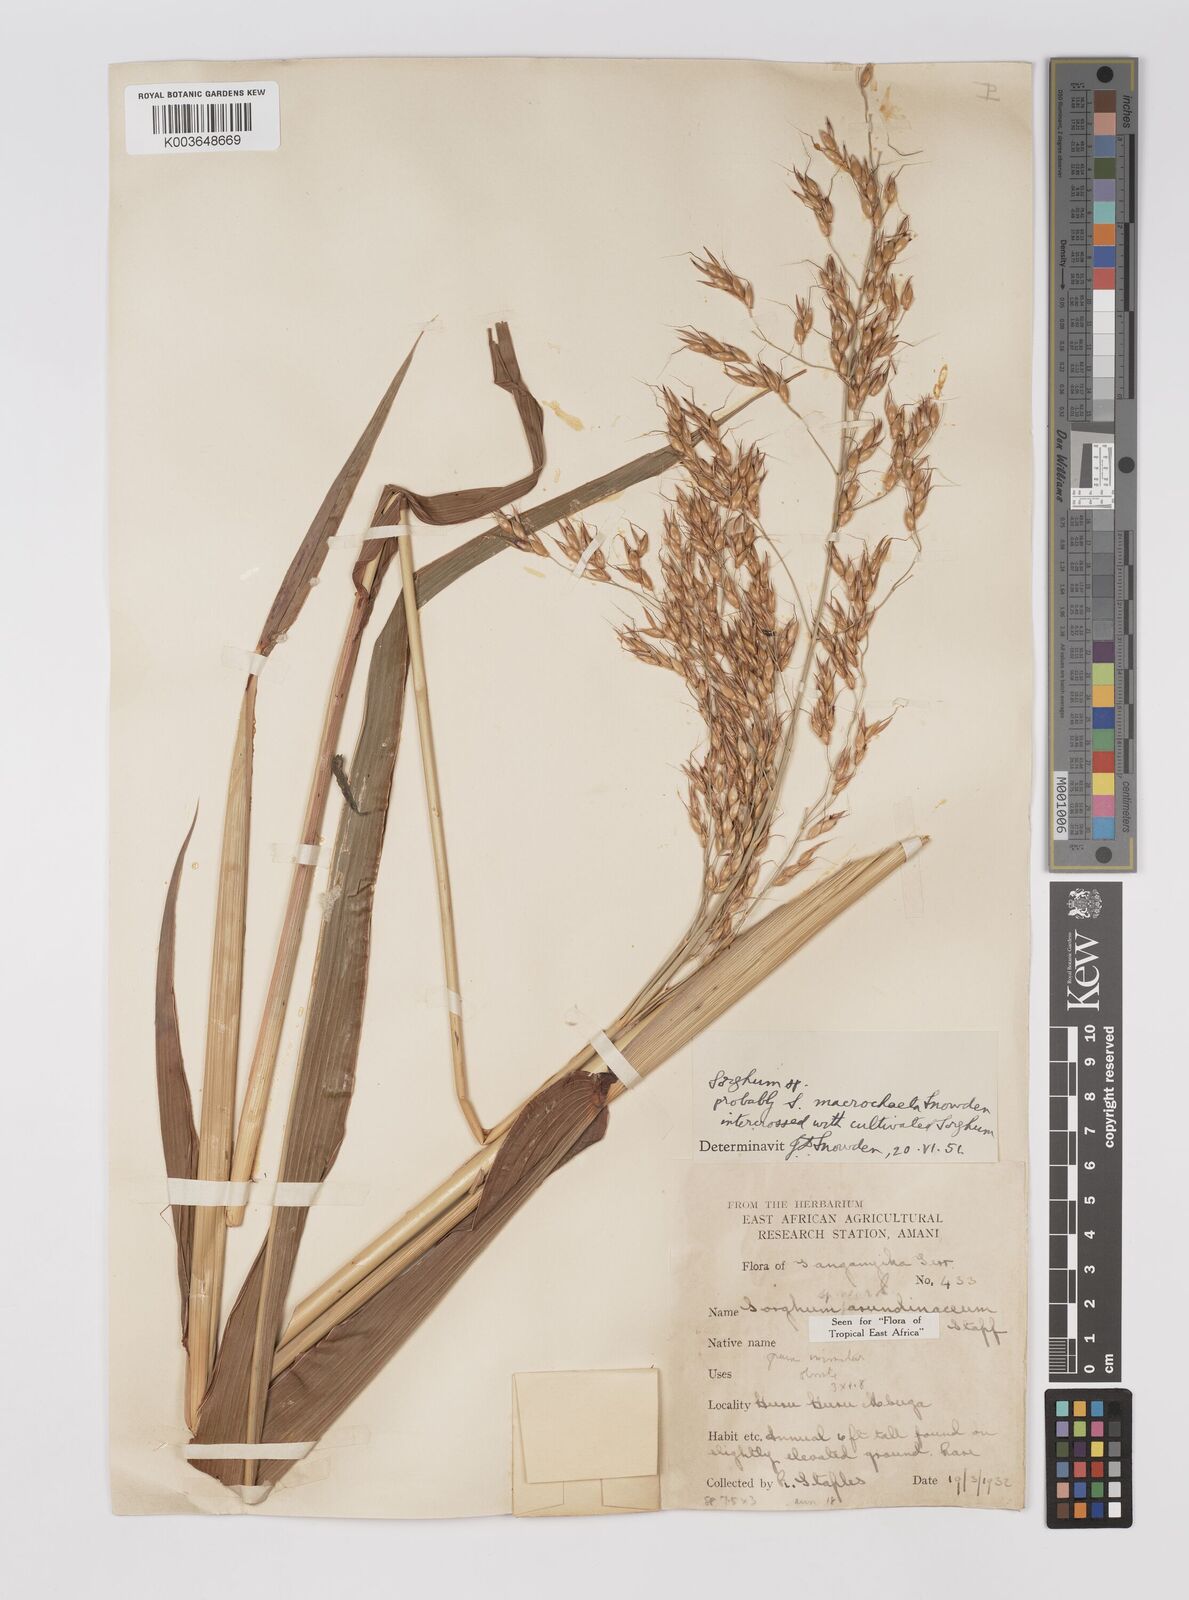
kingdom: Plantae
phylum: Tracheophyta
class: Liliopsida
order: Poales
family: Poaceae
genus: Sorghum
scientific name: Sorghum arundinaceum
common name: Sorghum
